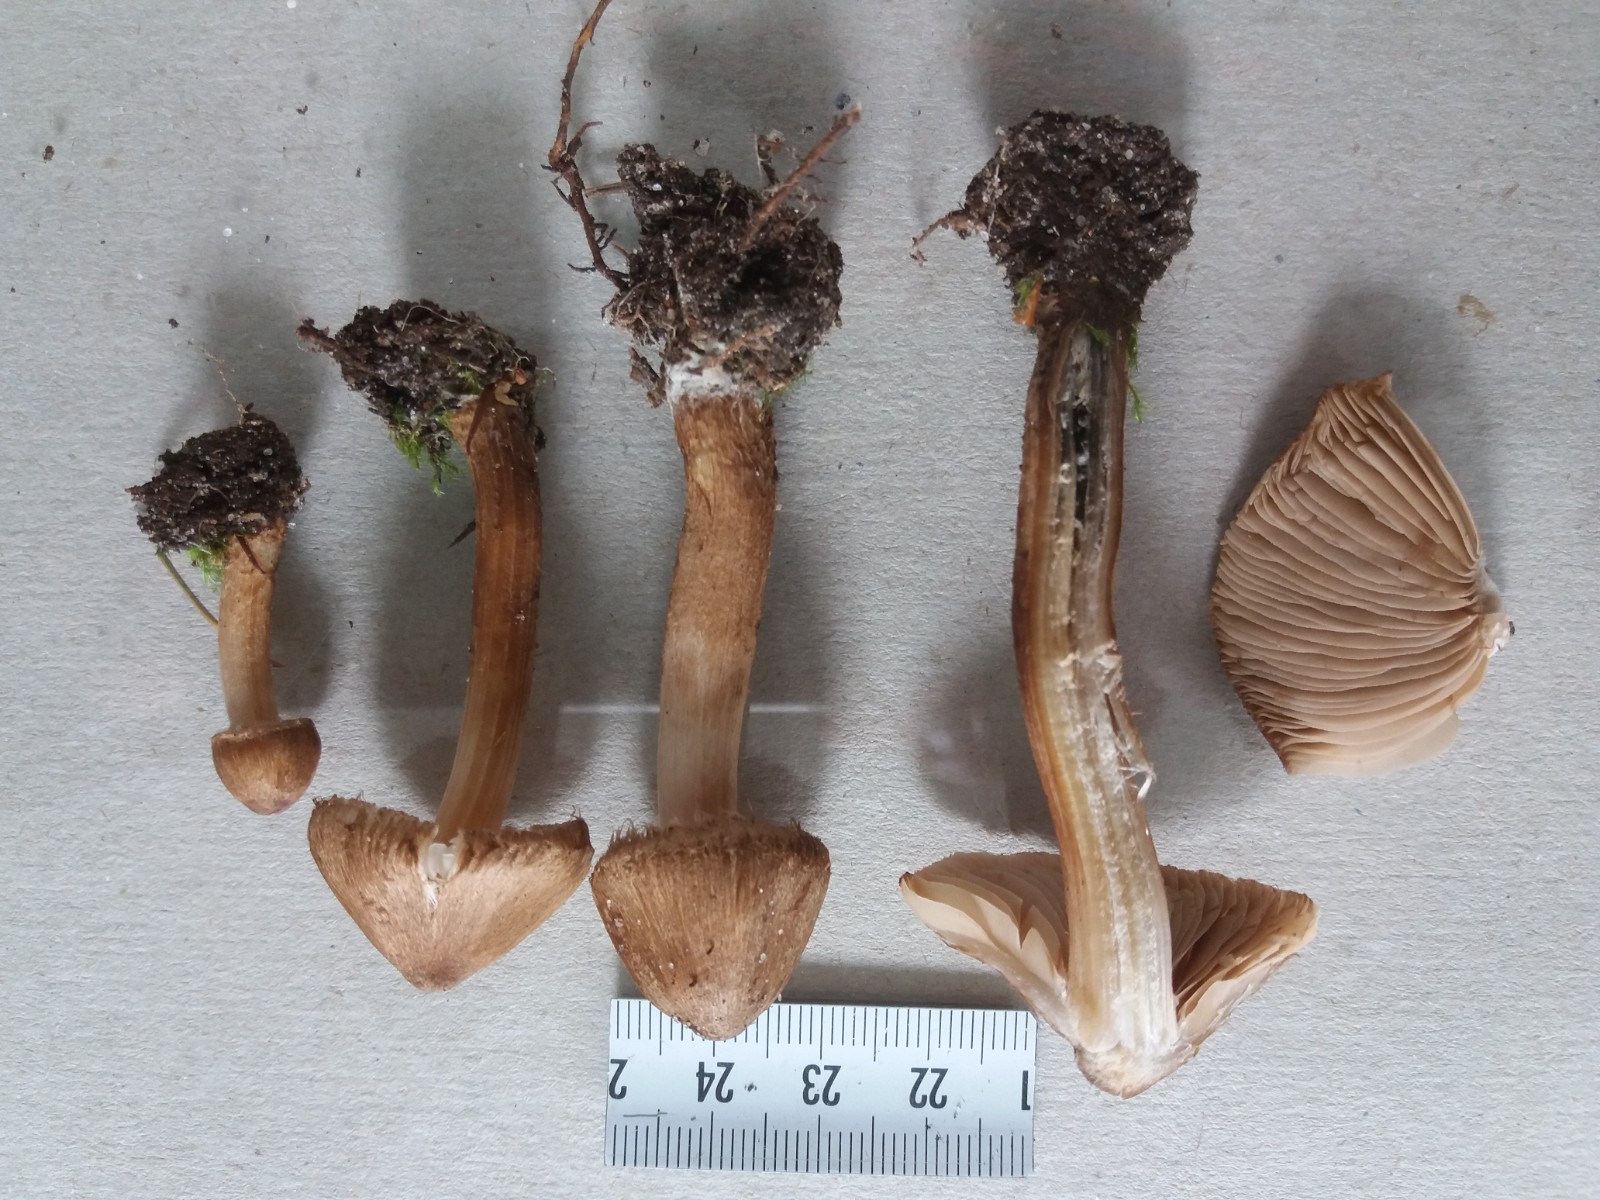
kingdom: Fungi
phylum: Basidiomycota
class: Agaricomycetes
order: Agaricales
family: Inocybaceae
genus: Inocybe
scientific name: Inocybe soluta
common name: lysbladet trævlhat
